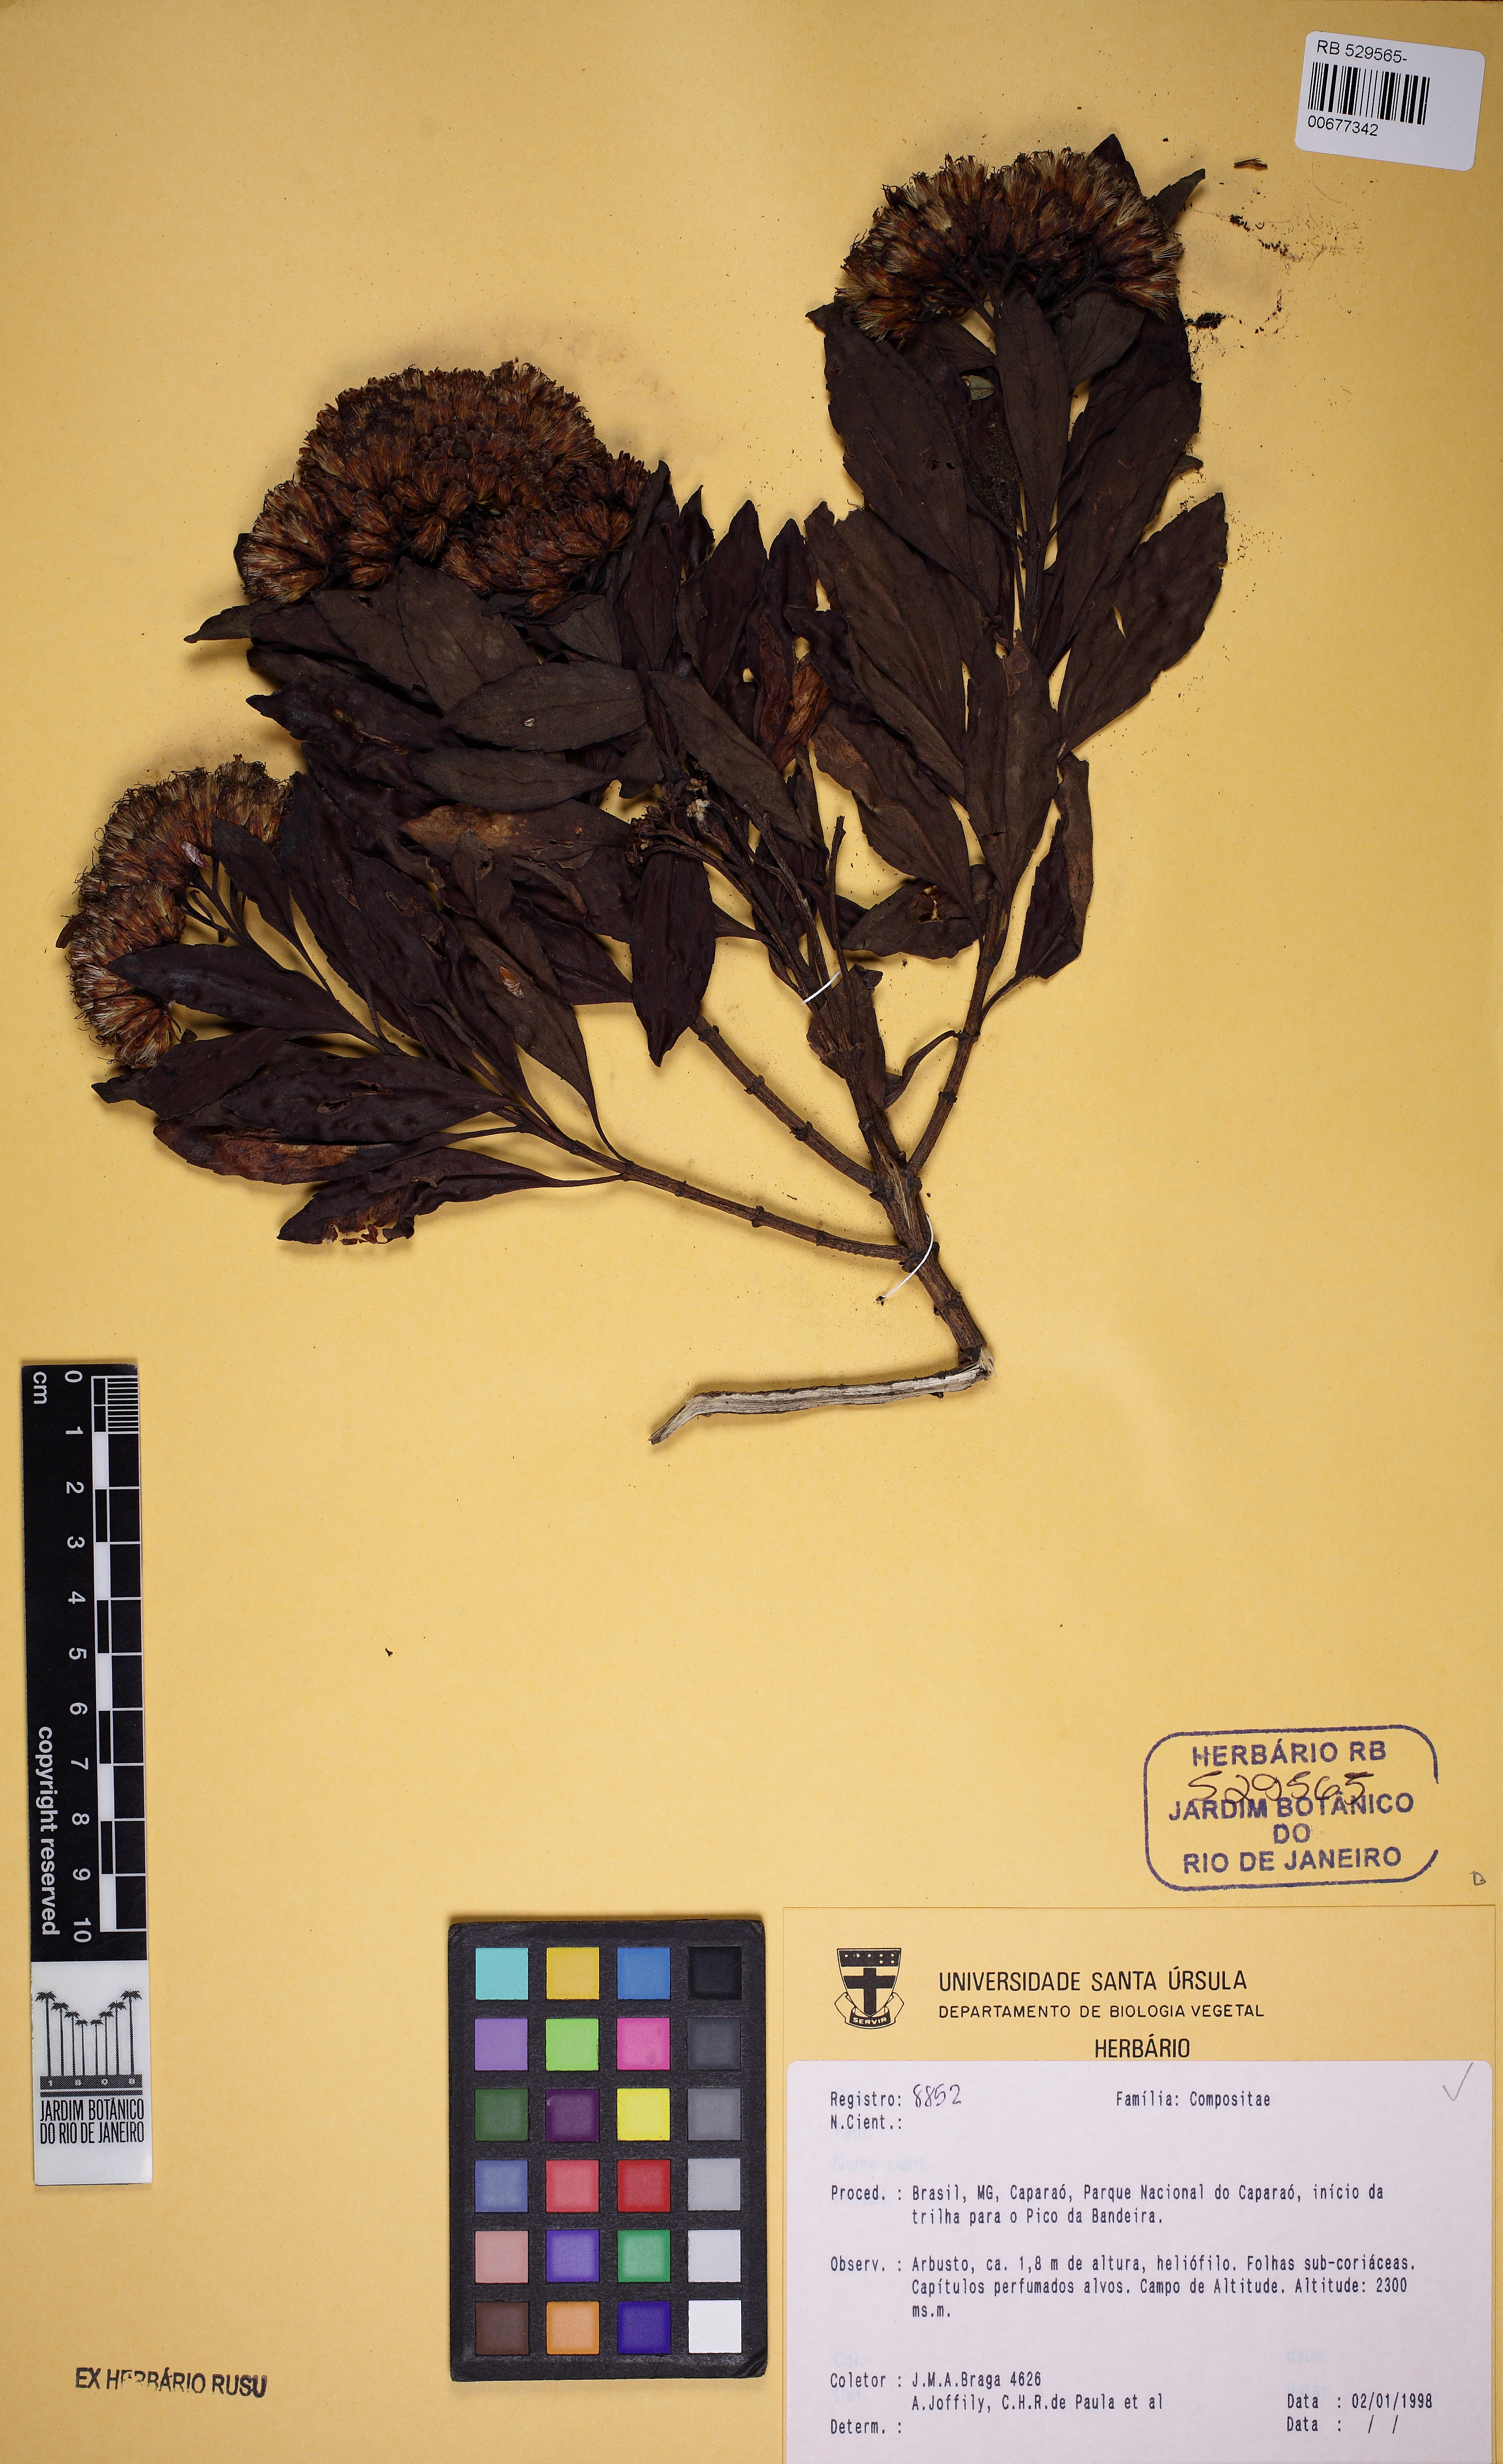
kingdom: Plantae
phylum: Tracheophyta
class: Magnoliopsida
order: Asterales
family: Asteraceae
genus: Symphyopappus
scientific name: Symphyopappus lymansmithii
